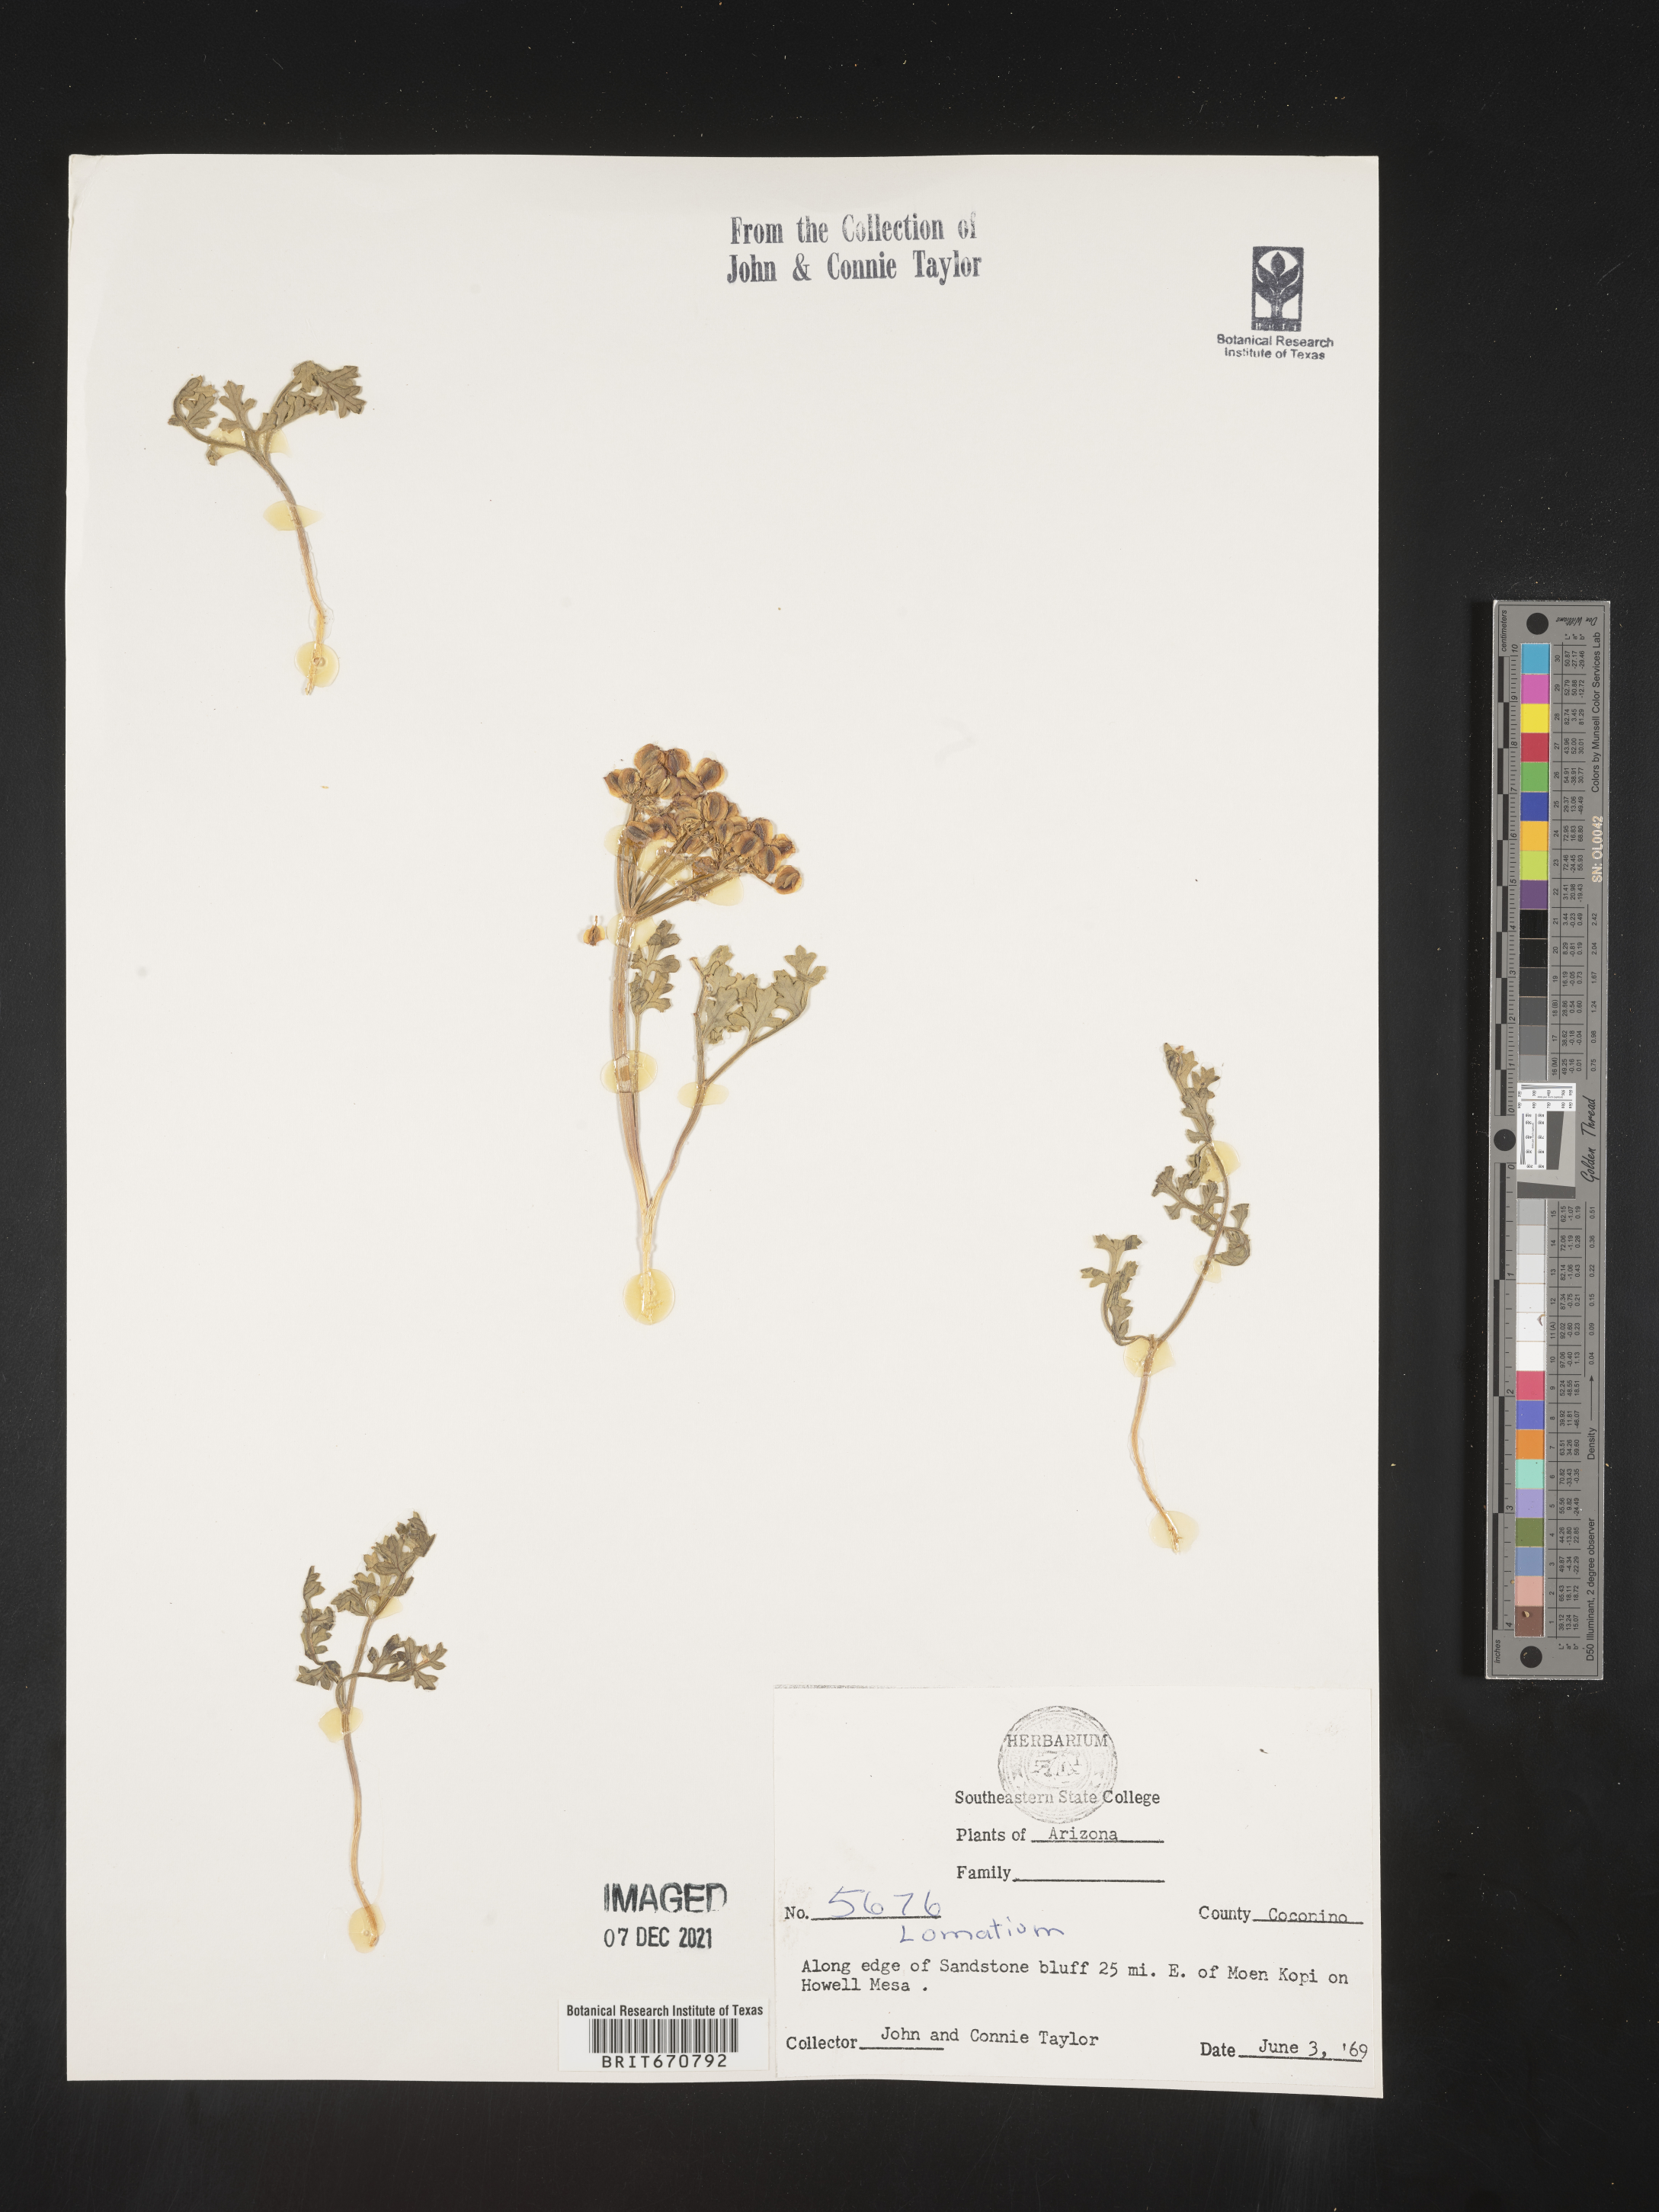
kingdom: Plantae
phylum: Tracheophyta
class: Magnoliopsida
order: Apiales
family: Apiaceae
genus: Lomatium
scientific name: Lomatium
